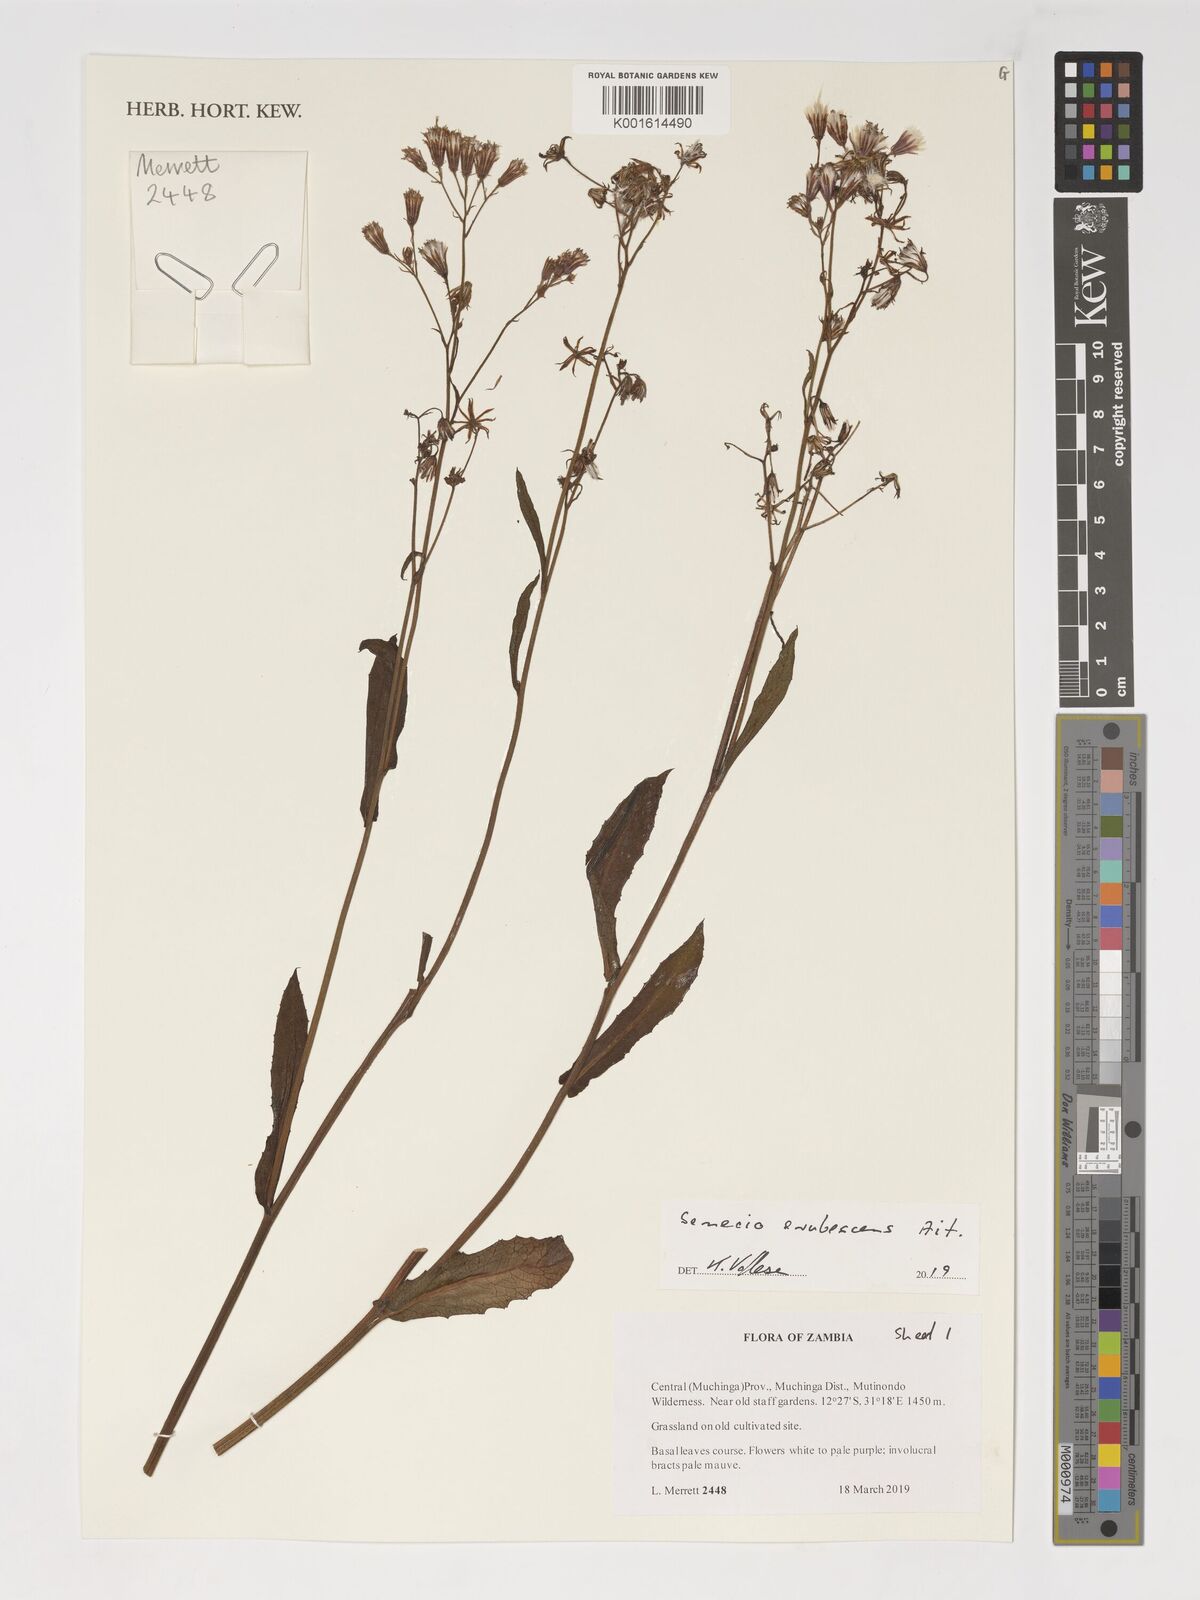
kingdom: Plantae
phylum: Tracheophyta
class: Magnoliopsida
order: Asterales
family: Asteraceae
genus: Senecio
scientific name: Senecio erubescens
